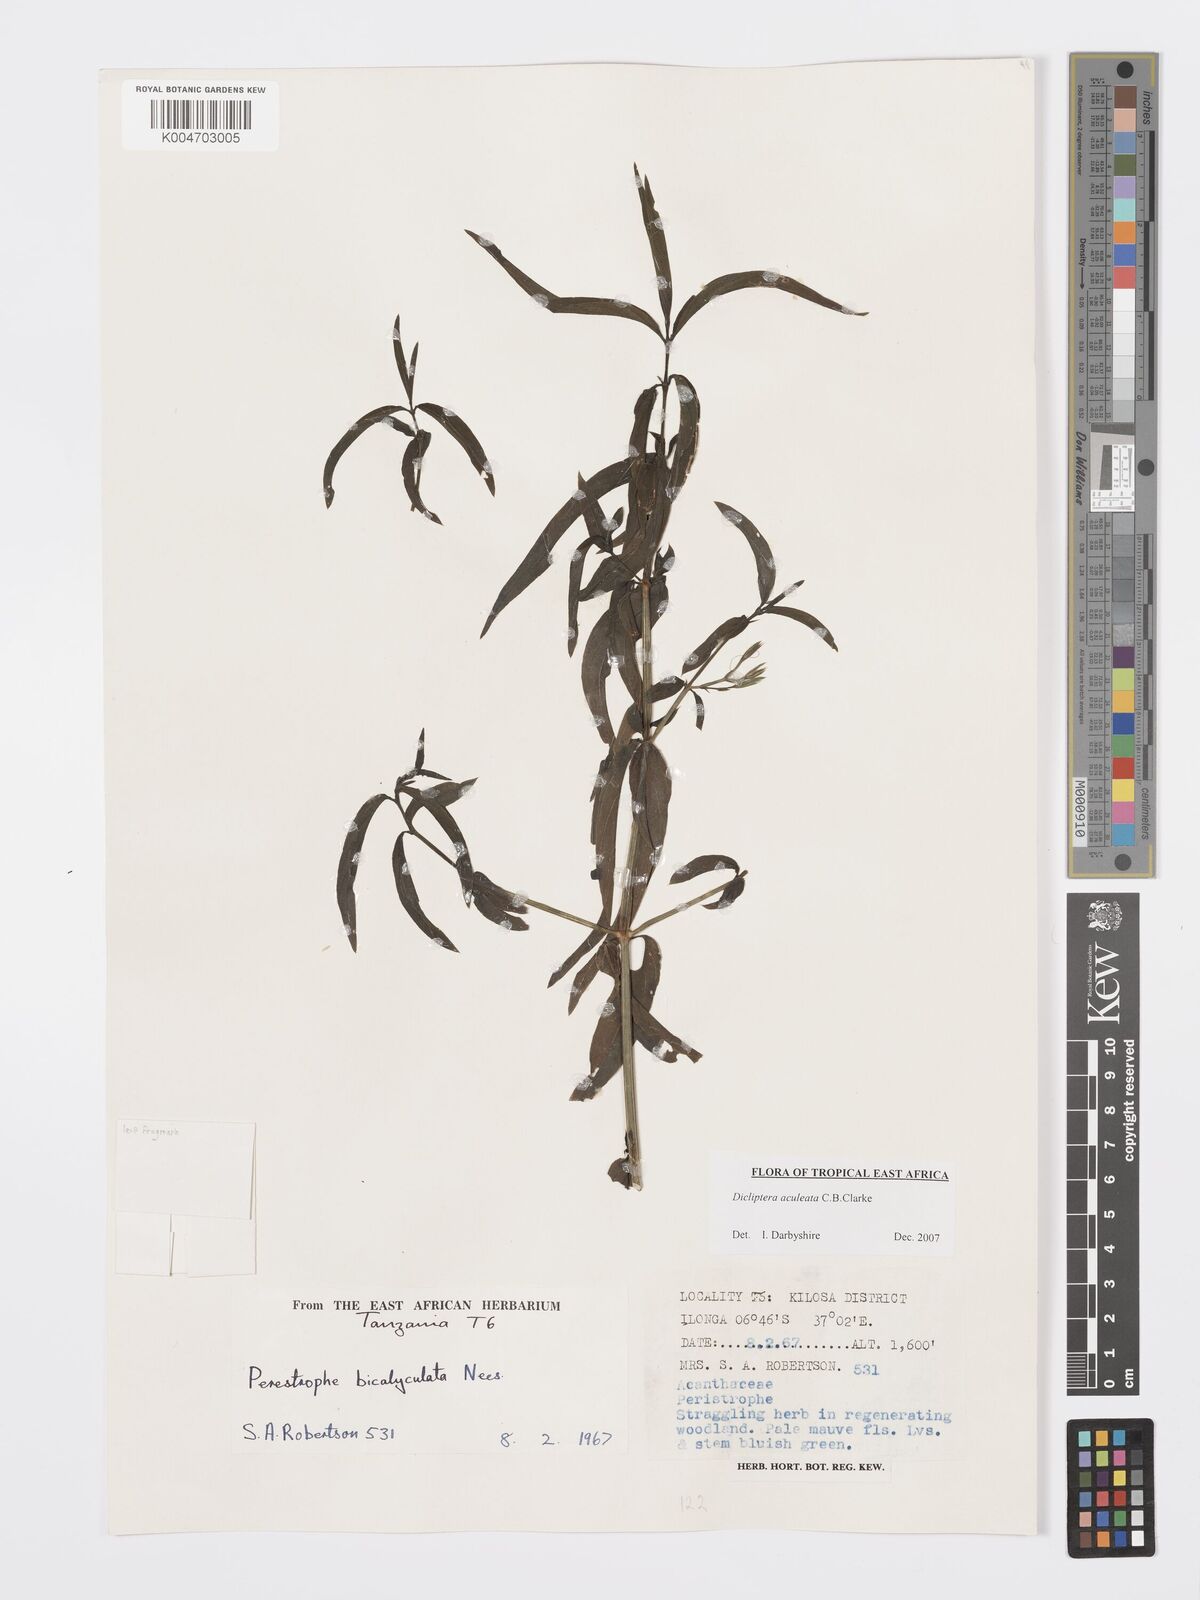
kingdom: Plantae
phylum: Tracheophyta
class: Magnoliopsida
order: Lamiales
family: Acanthaceae
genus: Dicliptera
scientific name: Dicliptera hensii
